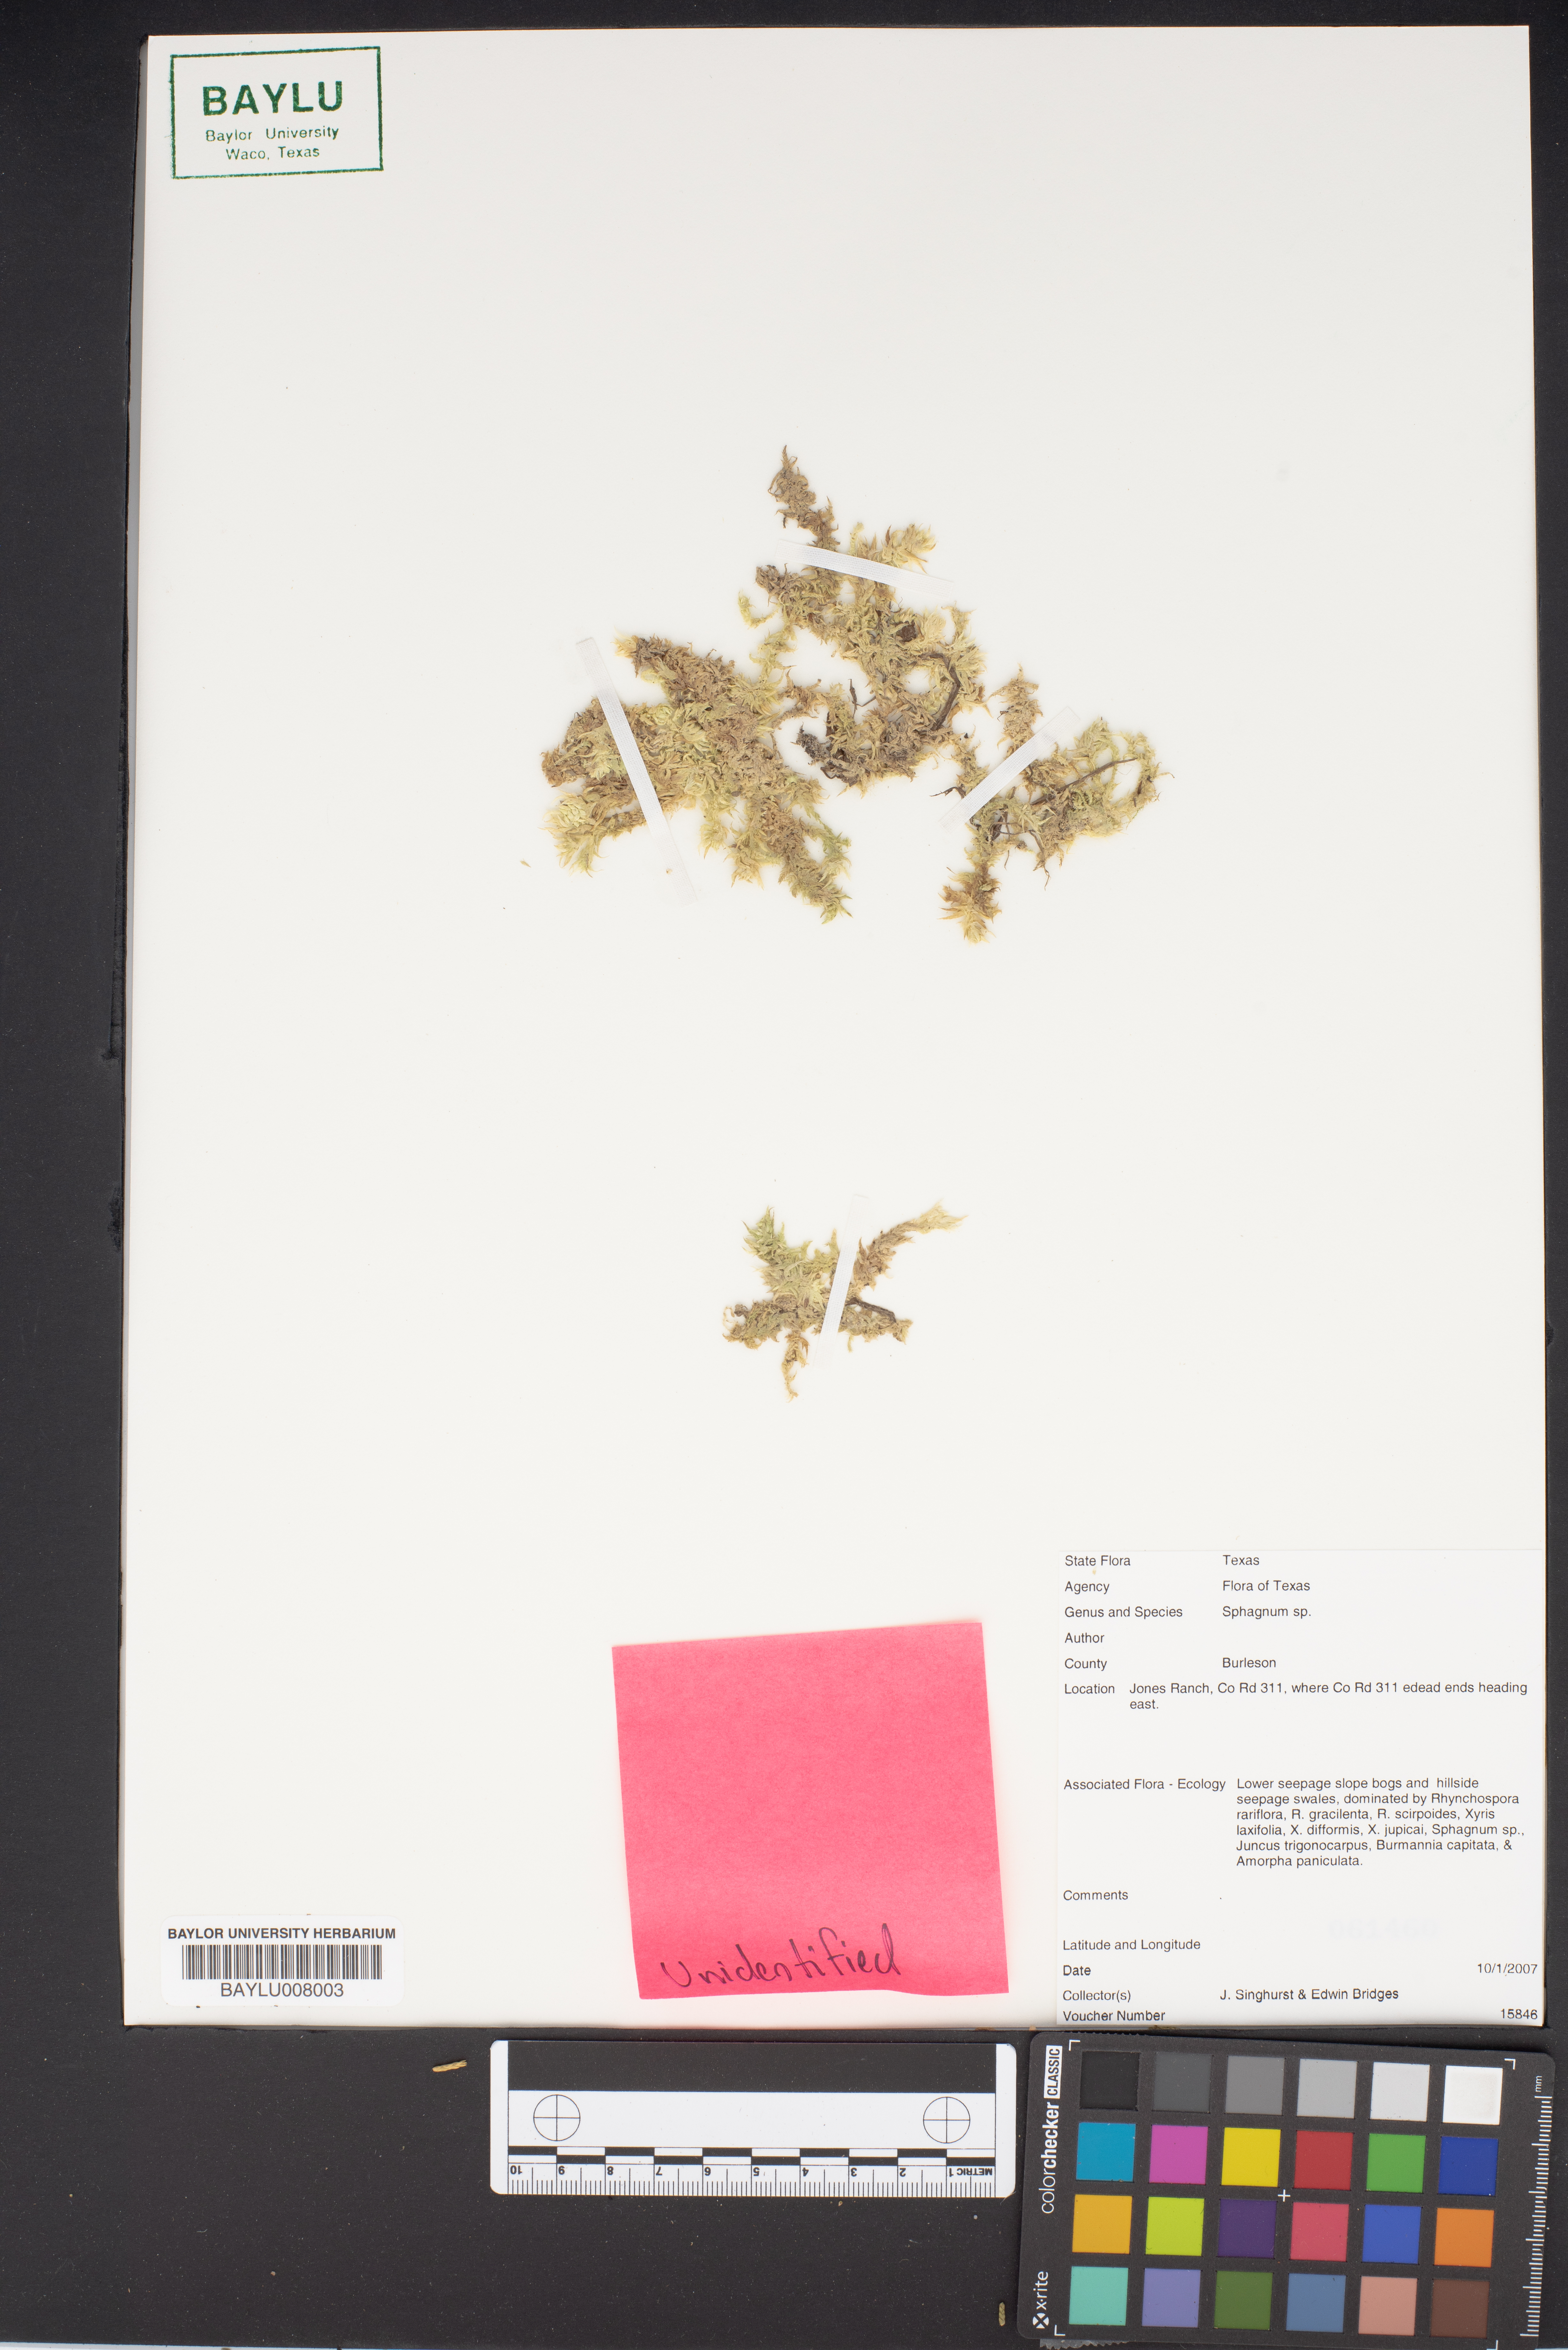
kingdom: Plantae
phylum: Bryophyta
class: Sphagnopsida
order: Sphagnales
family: Sphagnaceae
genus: Sphagnum
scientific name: Sphagnum
